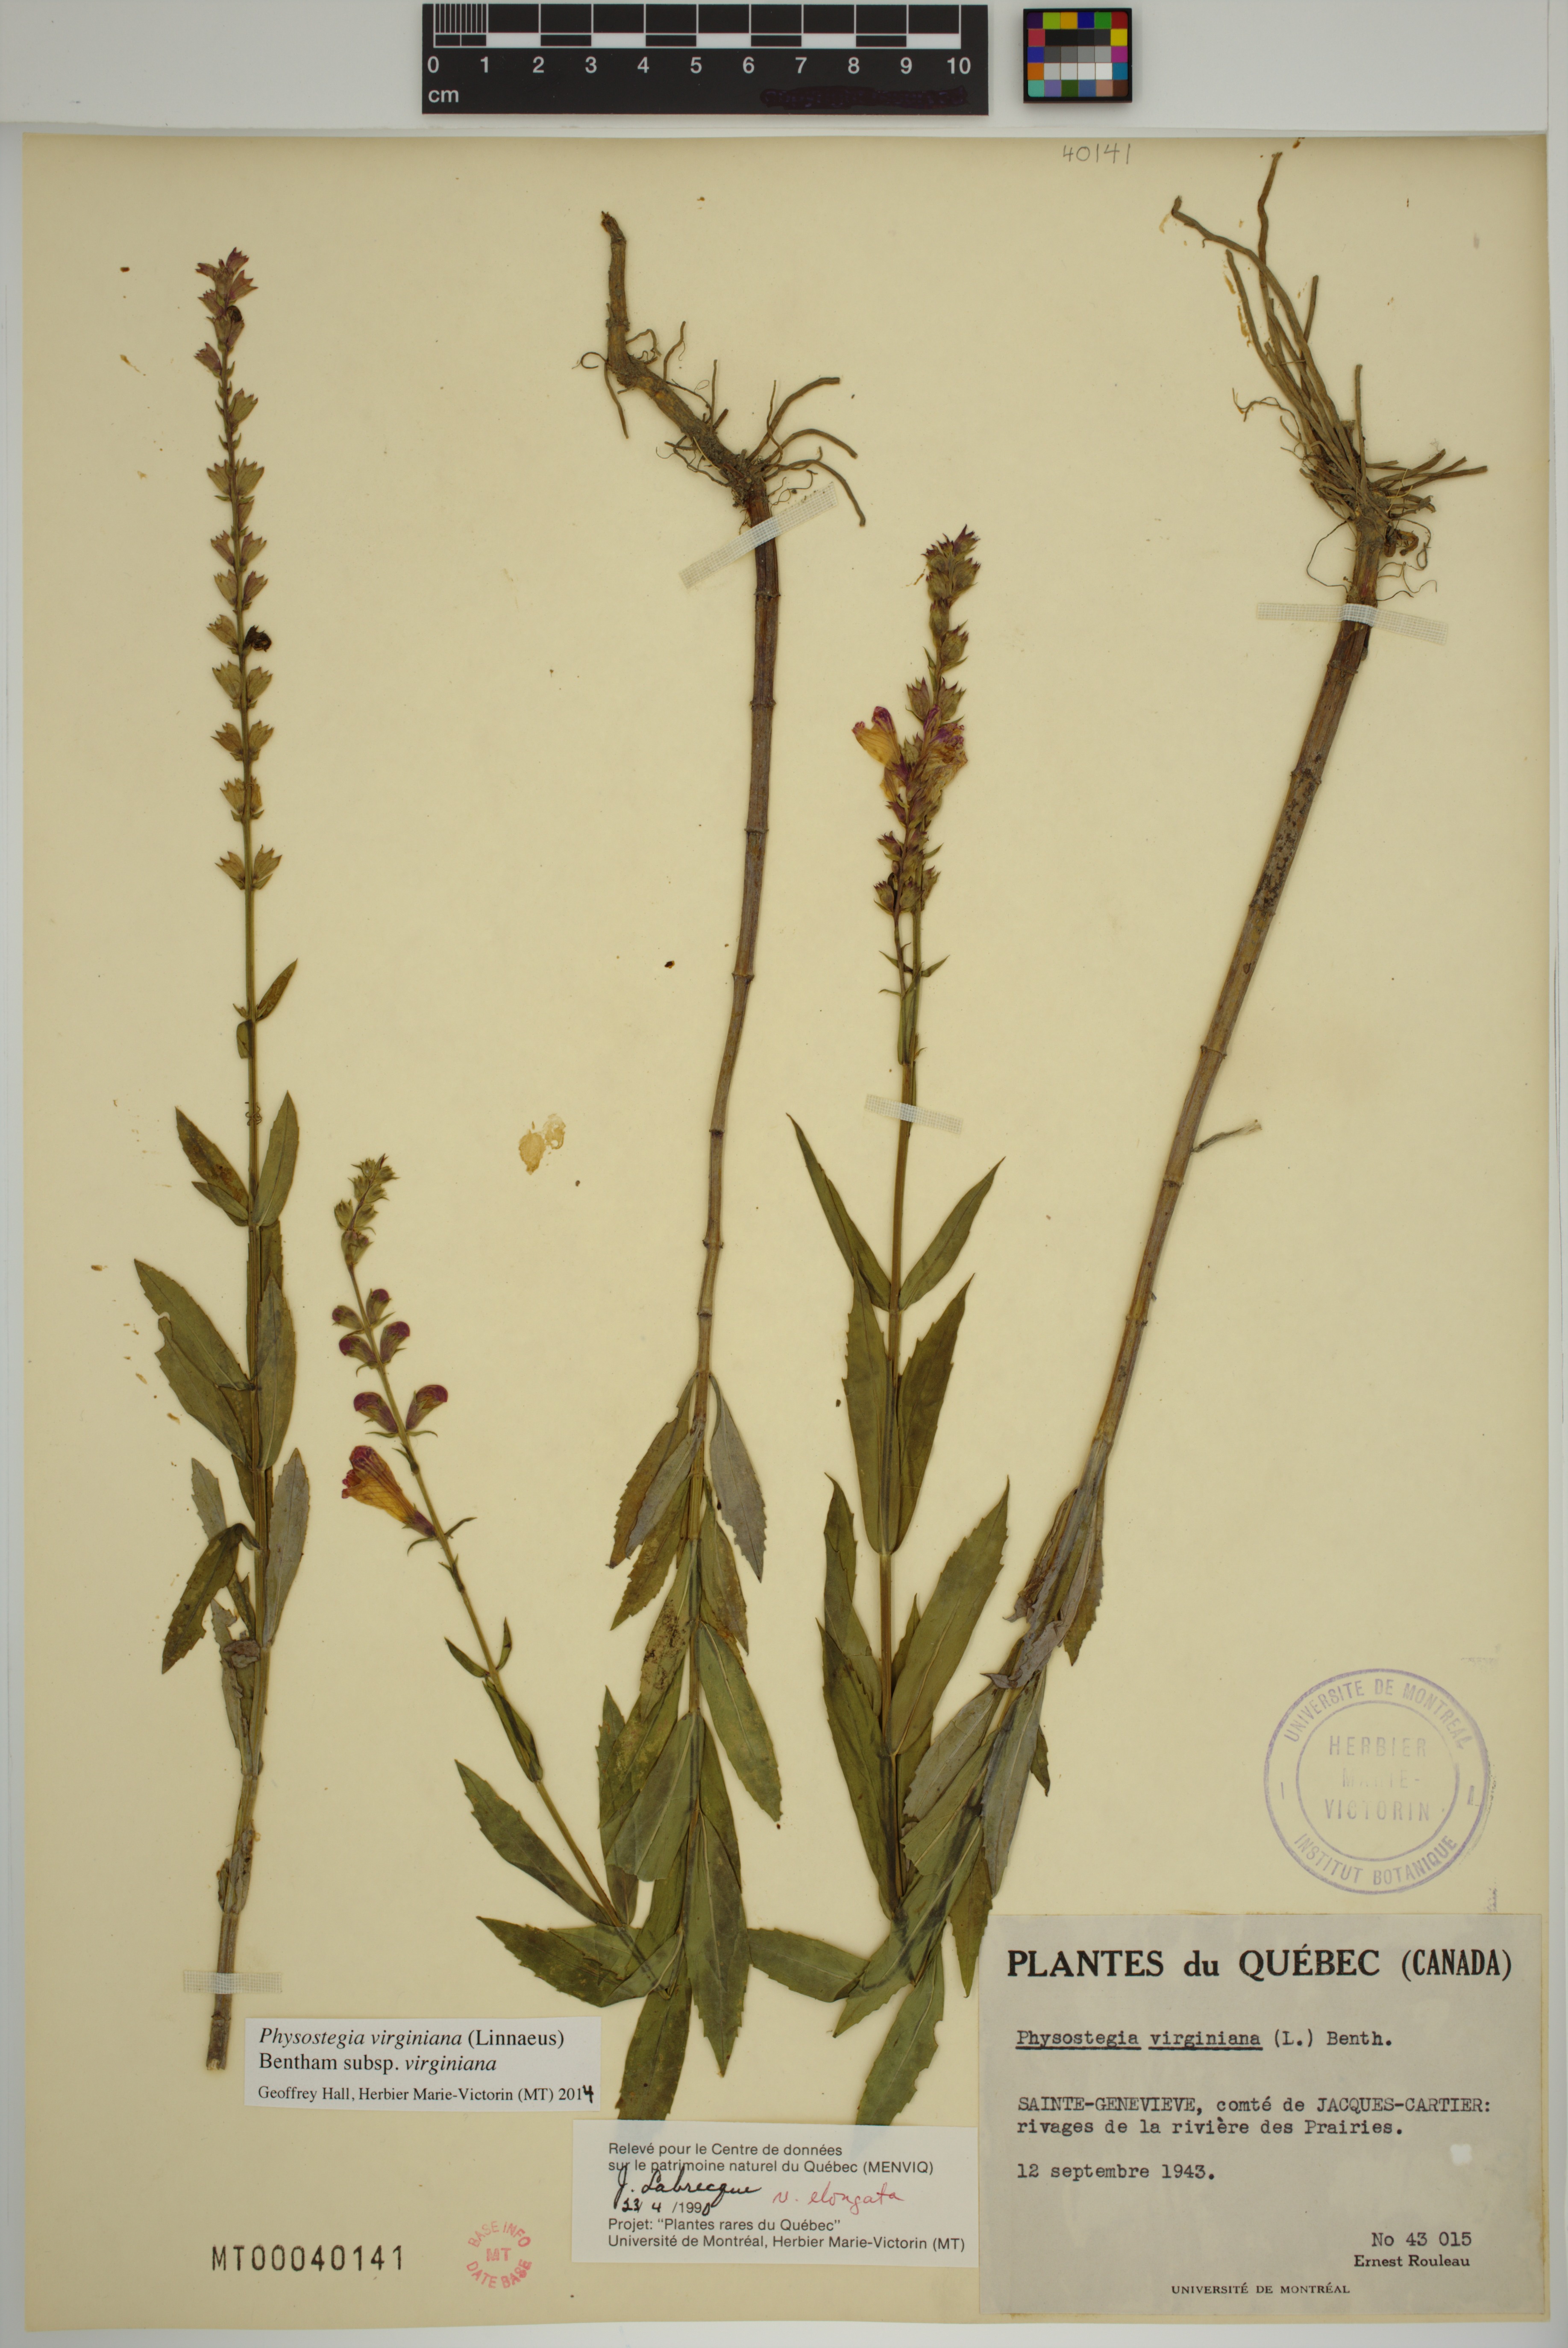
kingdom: Plantae
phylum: Tracheophyta
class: Magnoliopsida
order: Lamiales
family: Lamiaceae
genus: Physostegia
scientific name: Physostegia virginiana
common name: Obedient-plant
